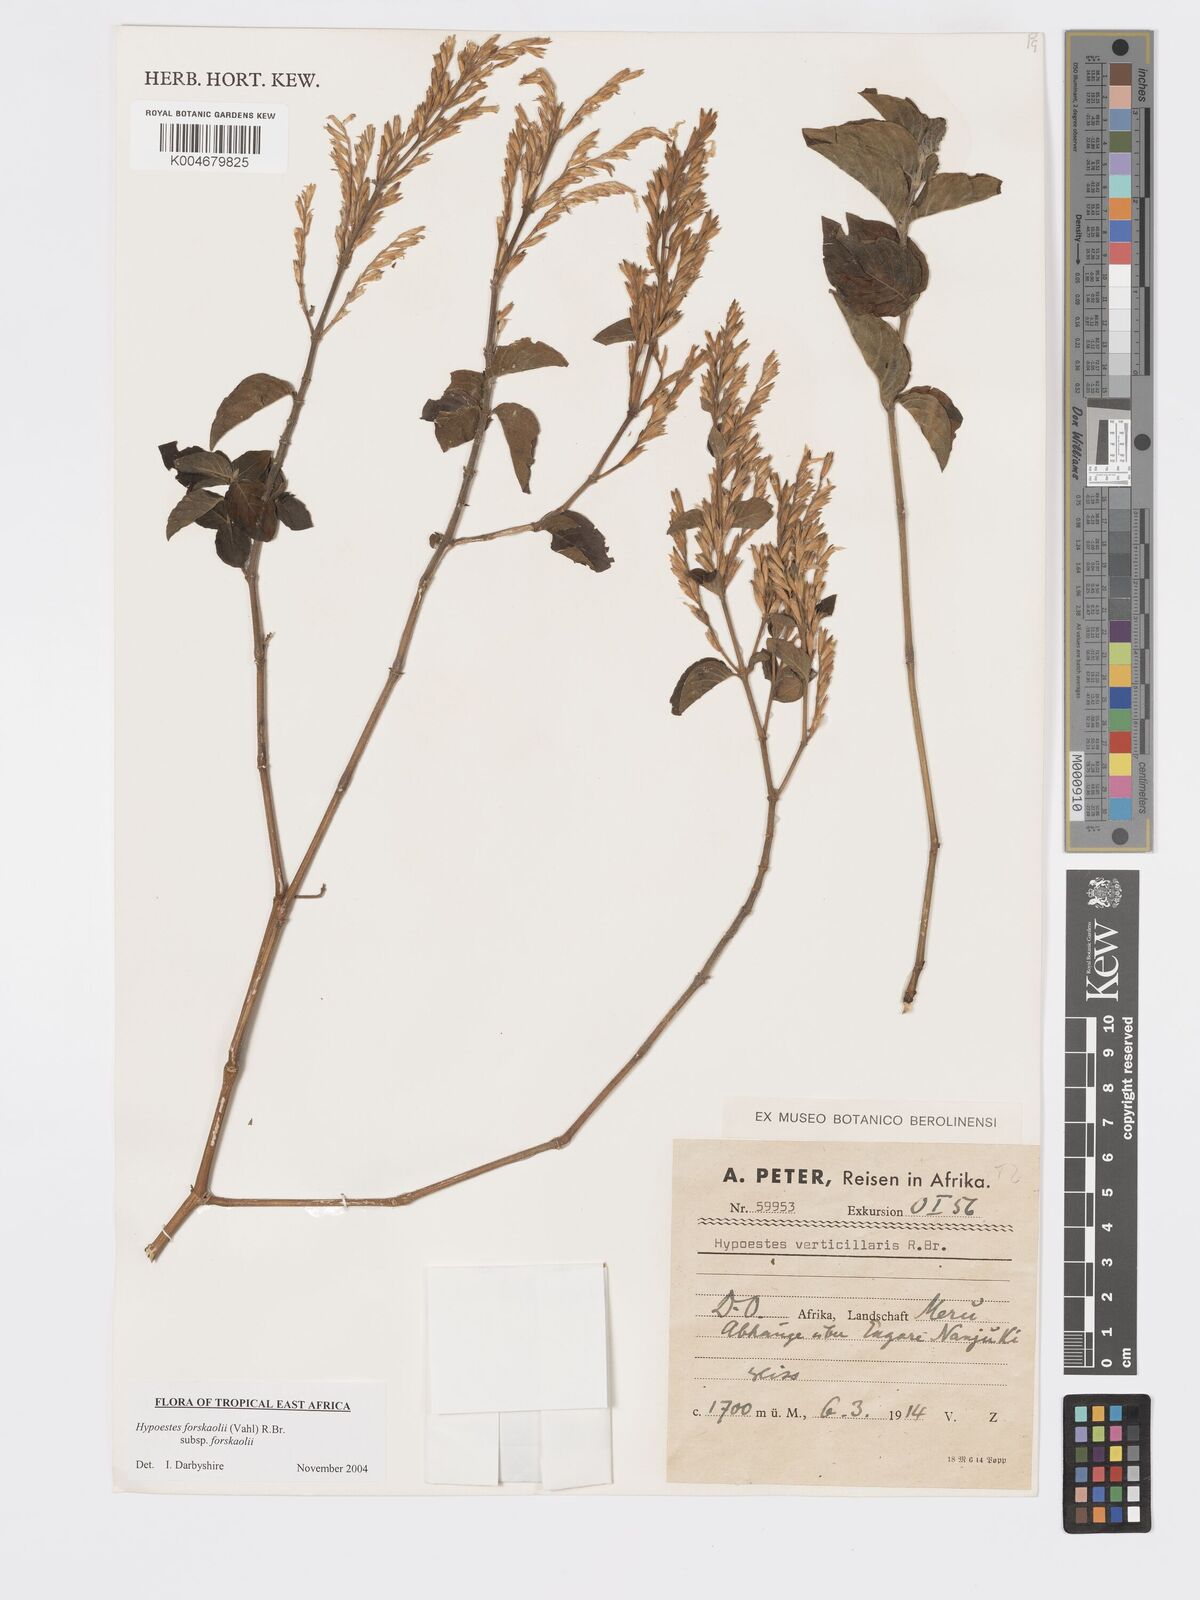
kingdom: Plantae
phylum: Tracheophyta
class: Magnoliopsida
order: Lamiales
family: Acanthaceae
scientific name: Acanthaceae
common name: Acanthaceae
